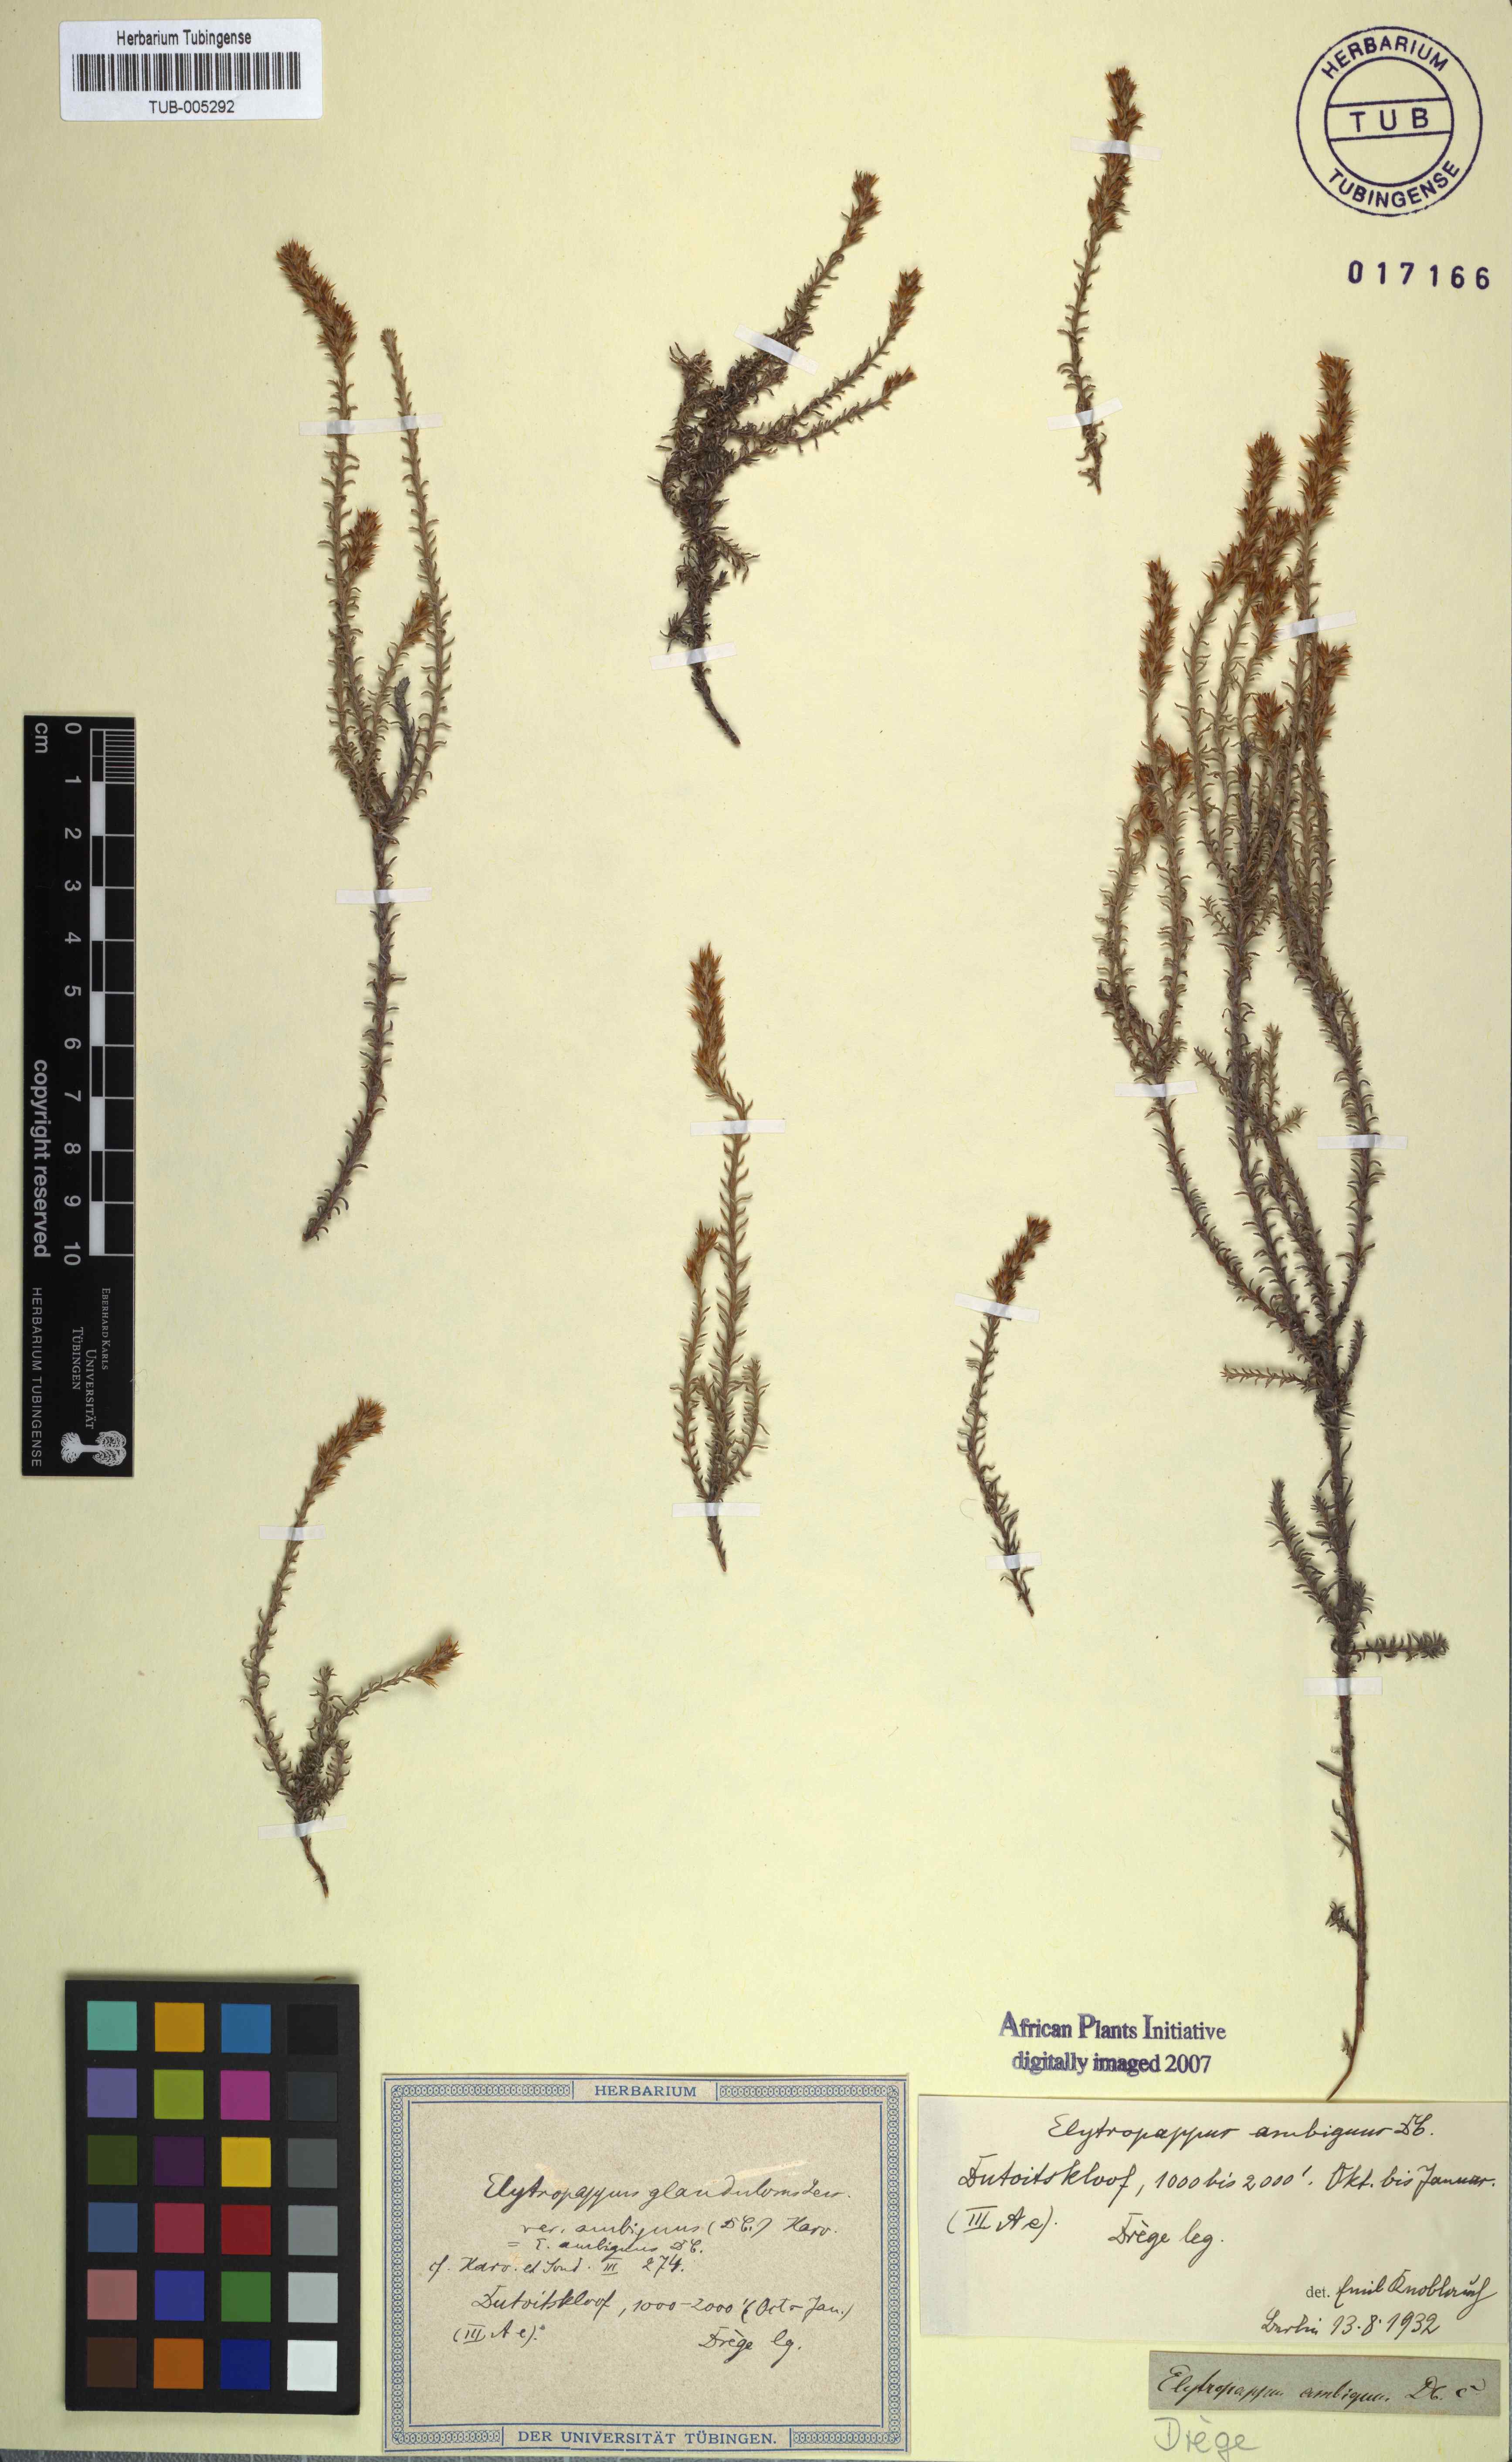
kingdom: Plantae
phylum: Tracheophyta
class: Magnoliopsida
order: Asterales
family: Asteraceae
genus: Myrovernix
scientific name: Myrovernix gnaphaloides
